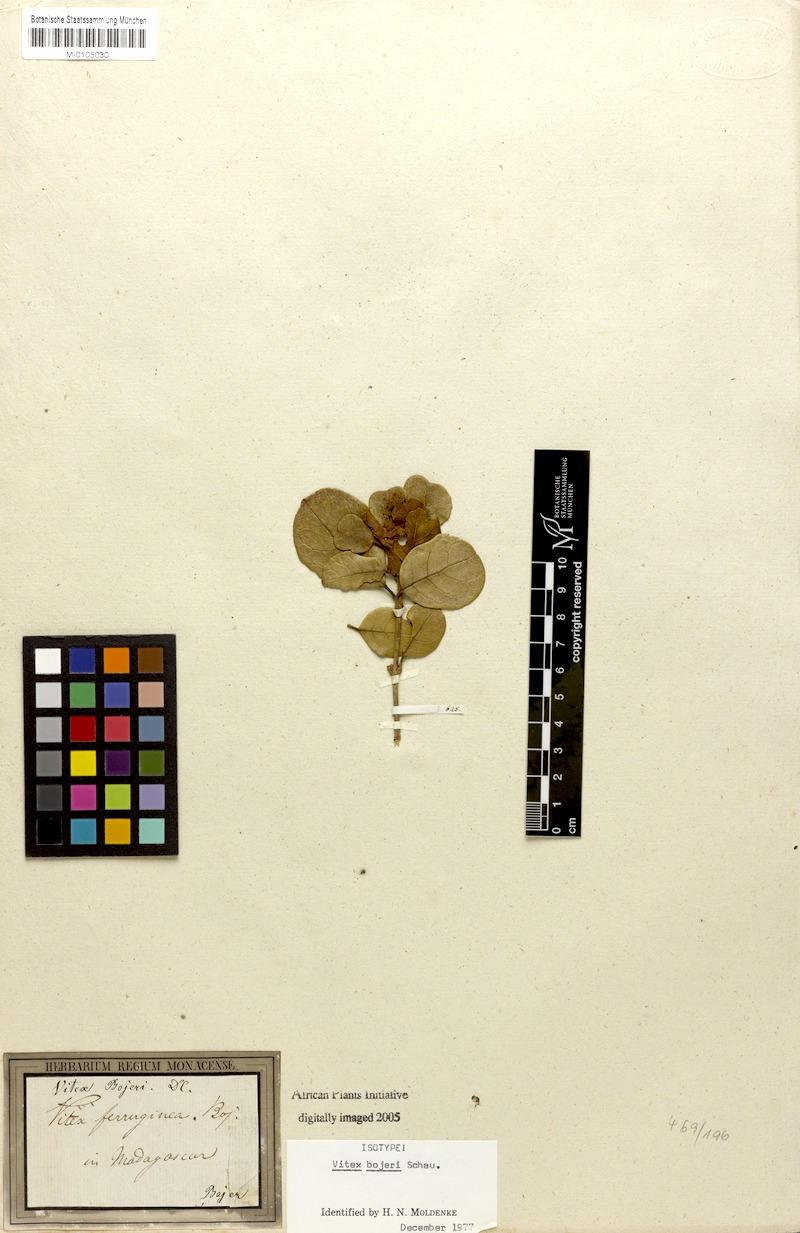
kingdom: Plantae
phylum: Tracheophyta
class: Magnoliopsida
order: Lamiales
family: Lamiaceae
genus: Vitex
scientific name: Vitex bojeri
